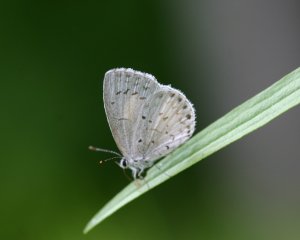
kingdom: Animalia
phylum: Arthropoda
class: Insecta
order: Lepidoptera
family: Lycaenidae
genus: Cyaniris
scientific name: Cyaniris neglecta
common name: Summer Azure
